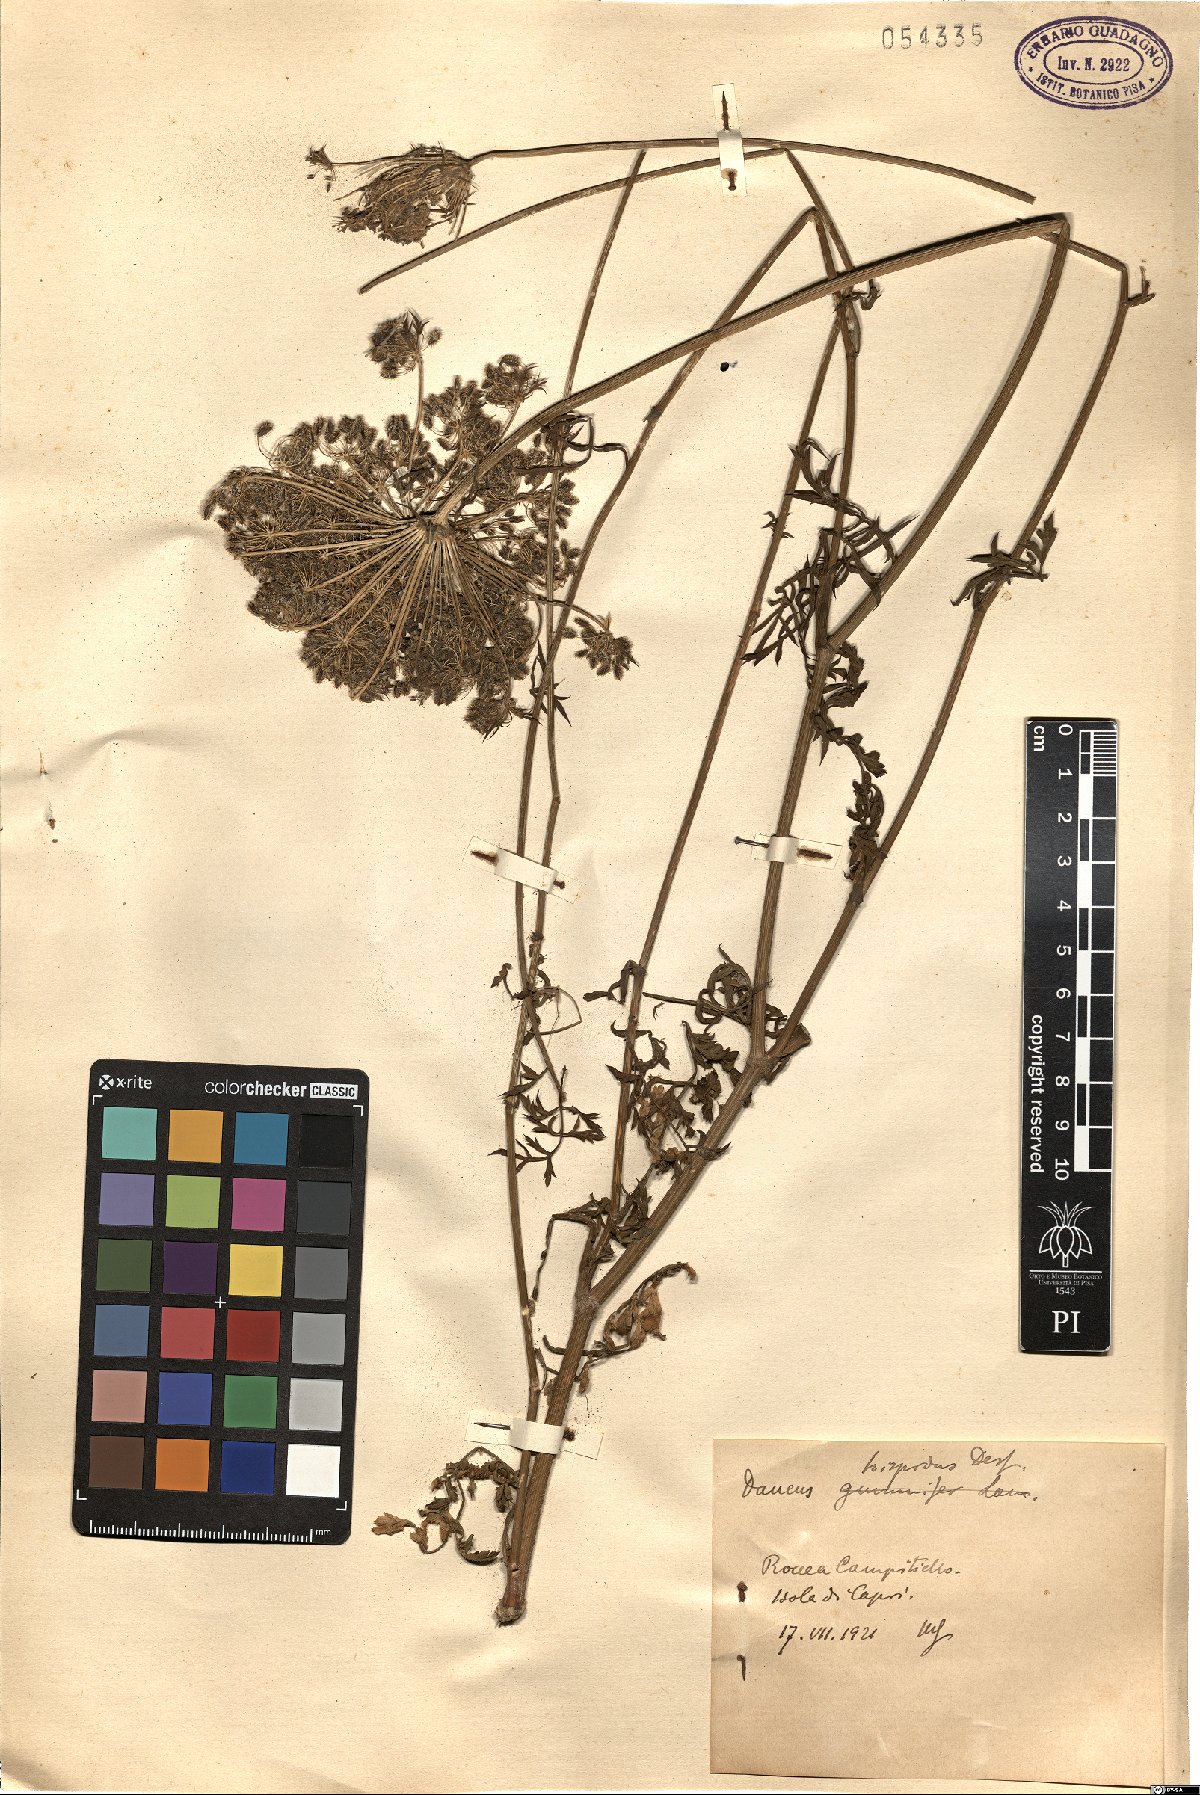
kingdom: Plantae
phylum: Tracheophyta
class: Magnoliopsida
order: Apiales
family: Apiaceae
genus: Daucus
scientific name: Daucus carota
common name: Wild carrot
